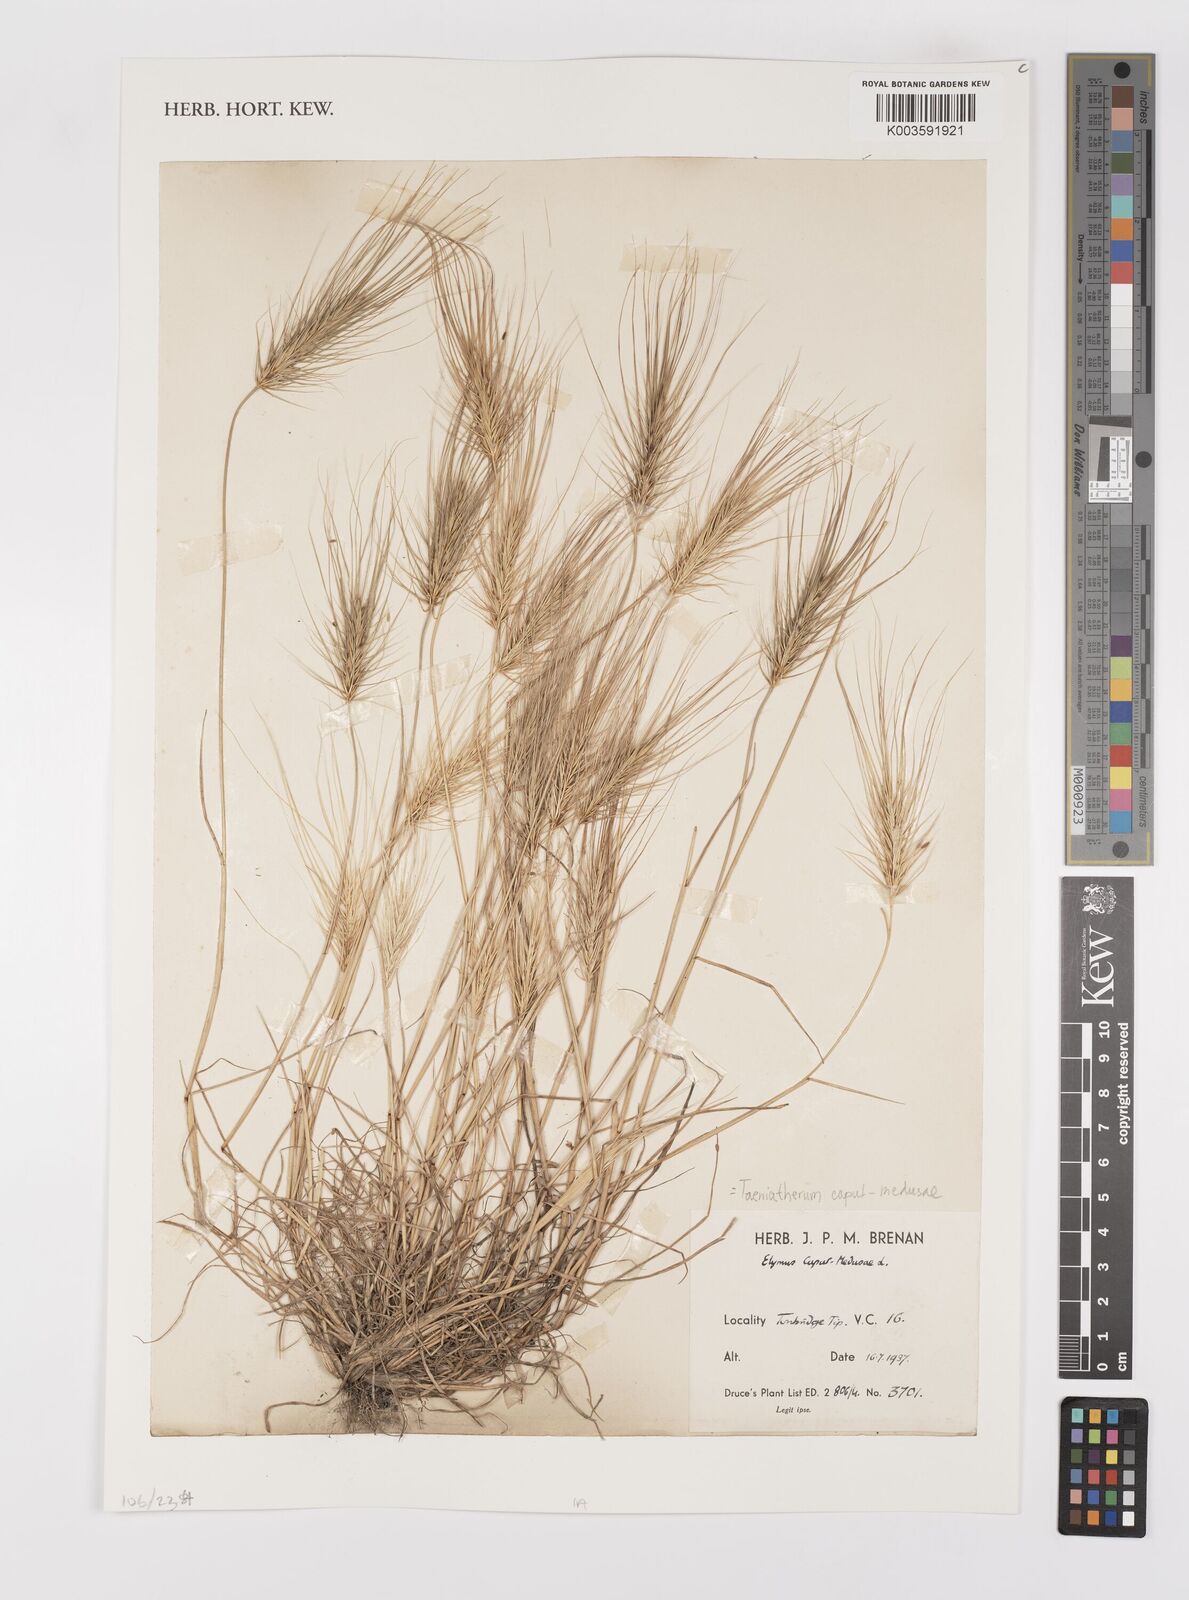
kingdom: Plantae
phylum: Tracheophyta
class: Liliopsida
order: Poales
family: Poaceae
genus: Taeniatherum
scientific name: Taeniatherum caput-medusae
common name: Medusahead
